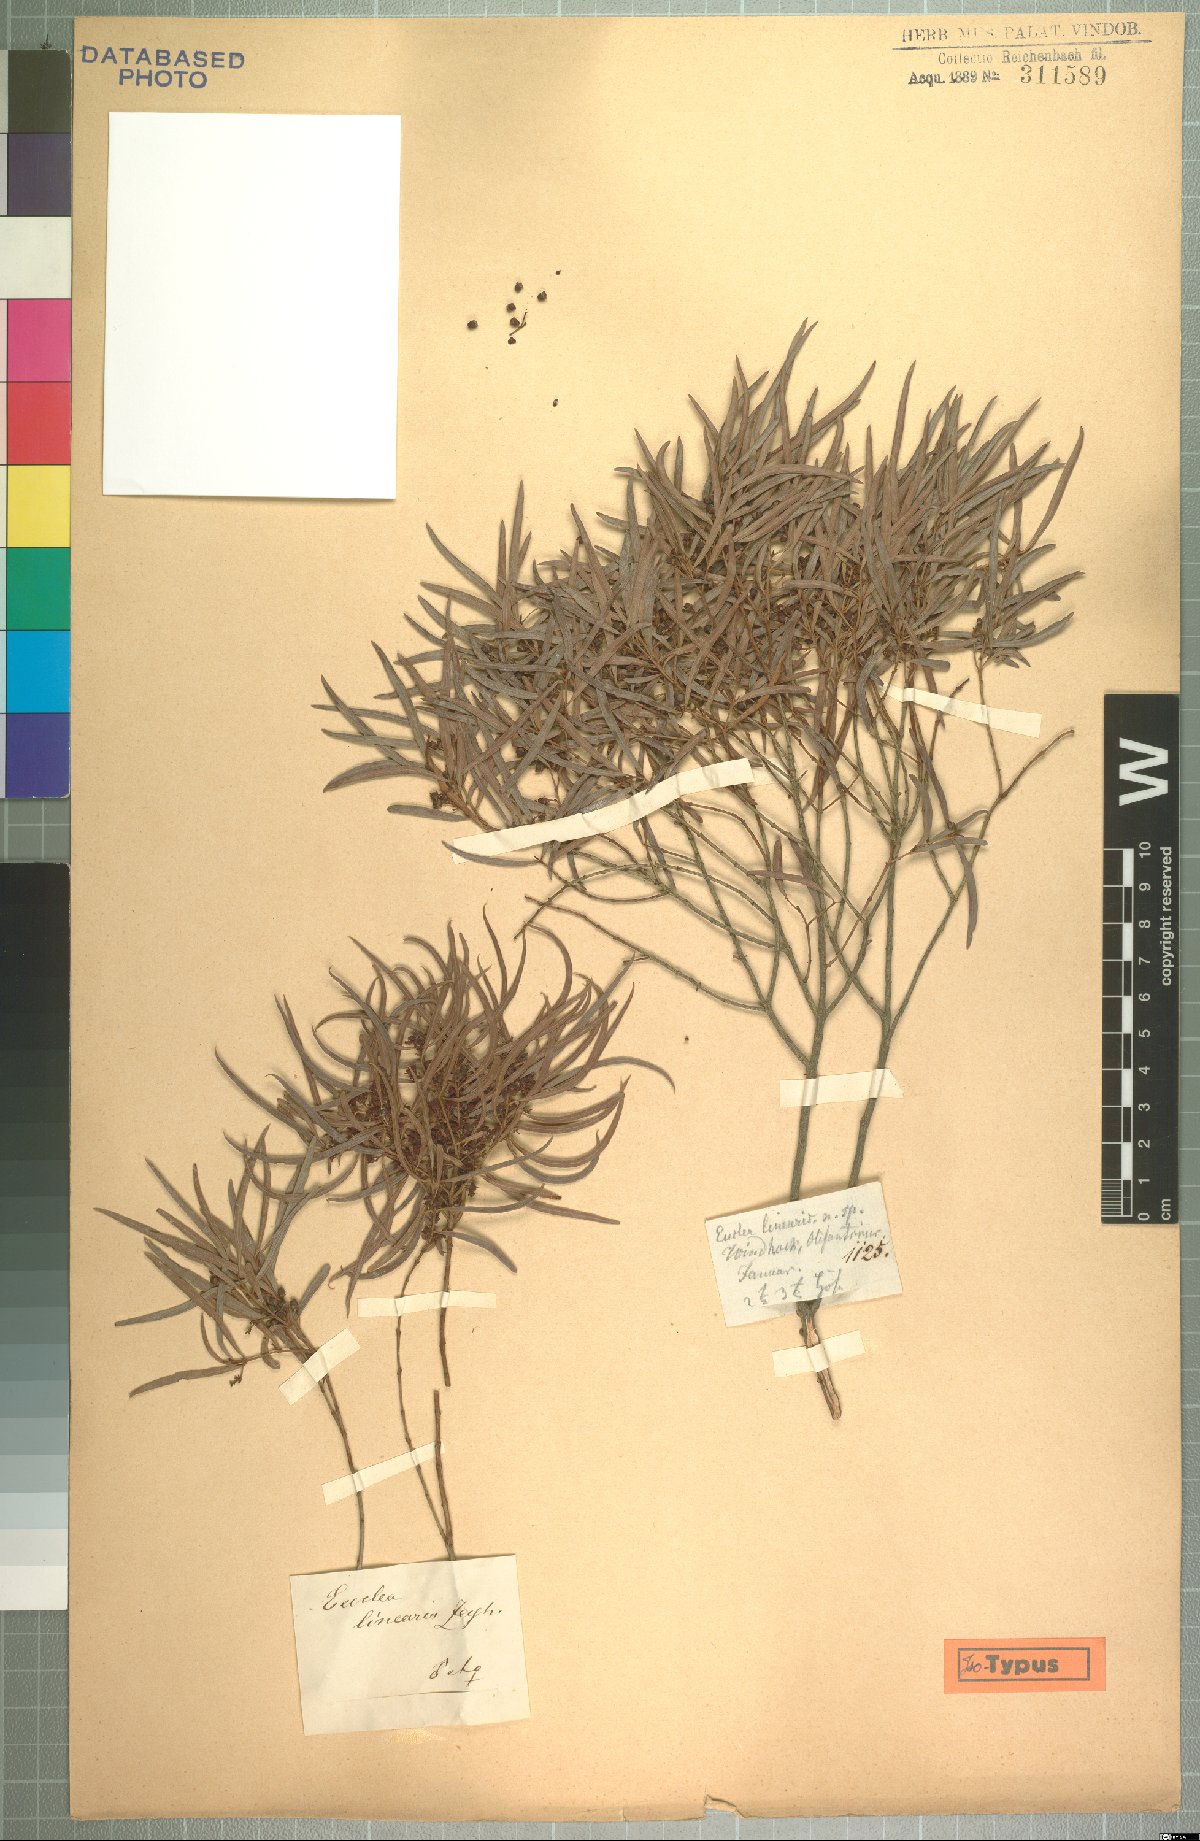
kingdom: Plantae
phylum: Tracheophyta
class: Magnoliopsida
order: Ericales
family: Ebenaceae
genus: Euclea
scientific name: Euclea crispa
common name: Blue guarri
